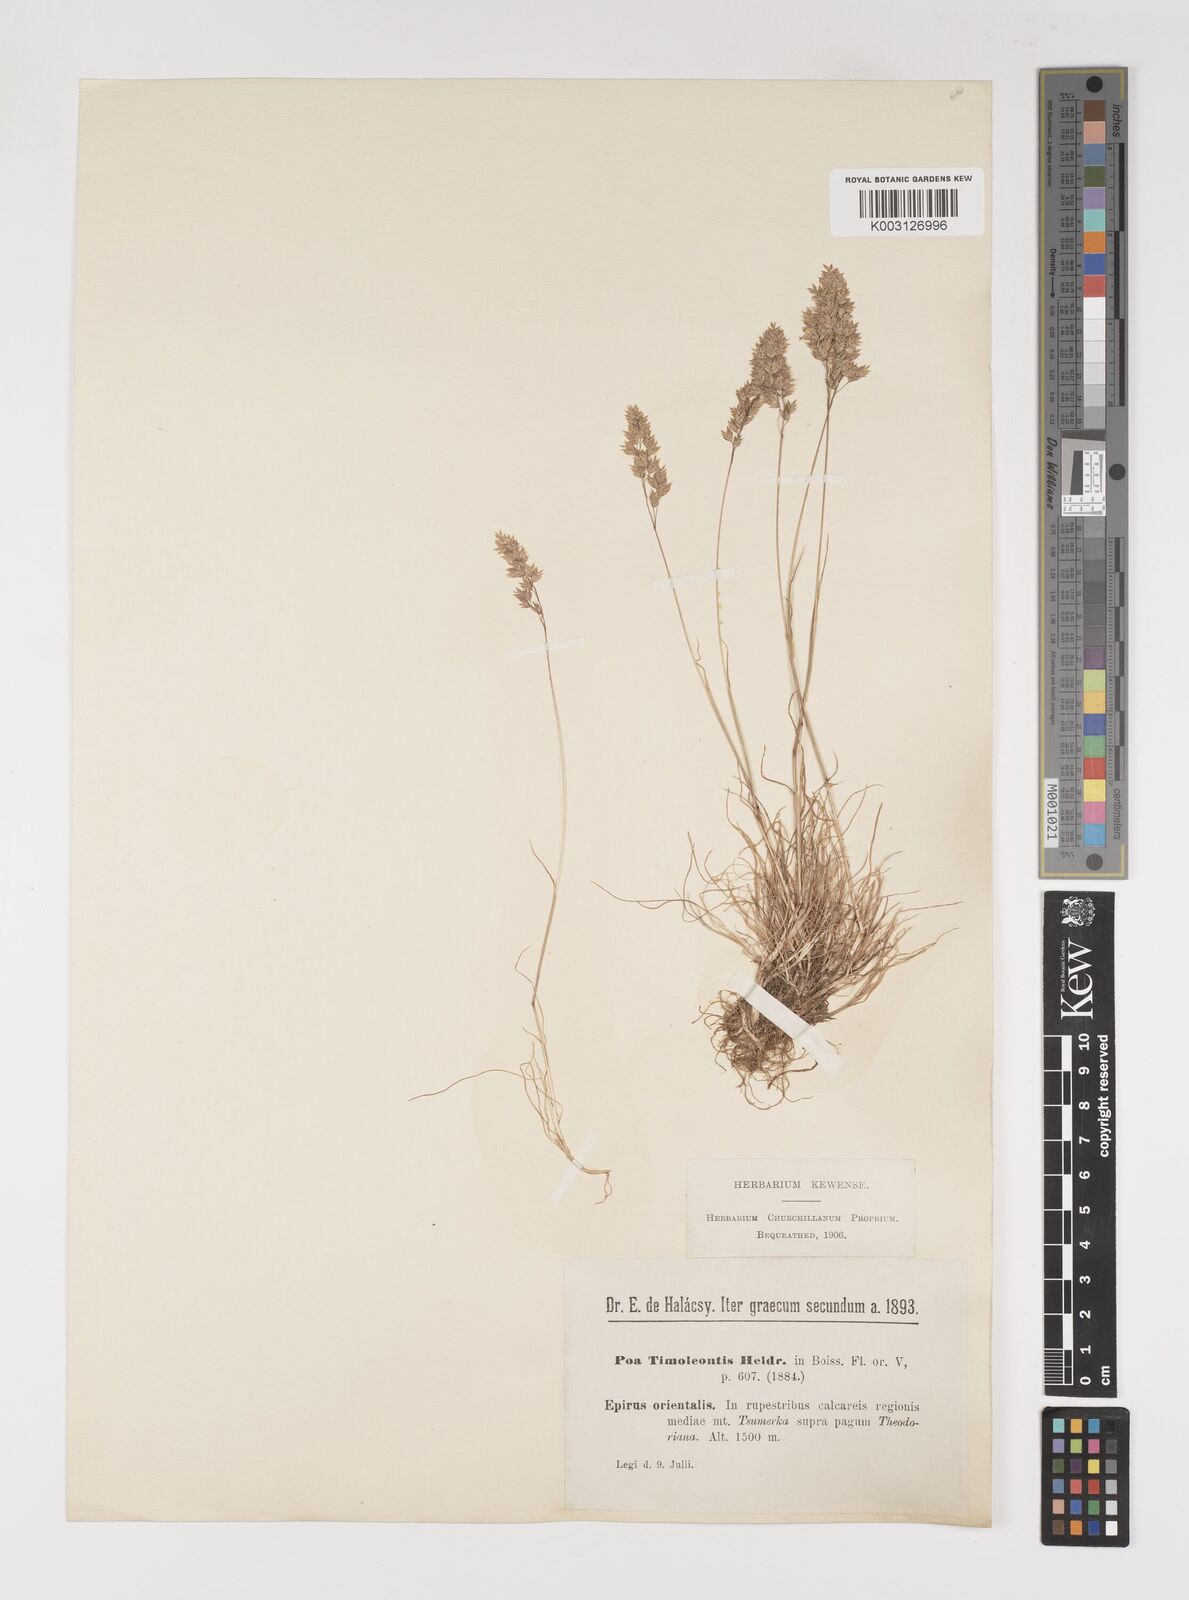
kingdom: Plantae
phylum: Tracheophyta
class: Liliopsida
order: Poales
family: Poaceae
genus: Poa
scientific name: Poa timoleontis
